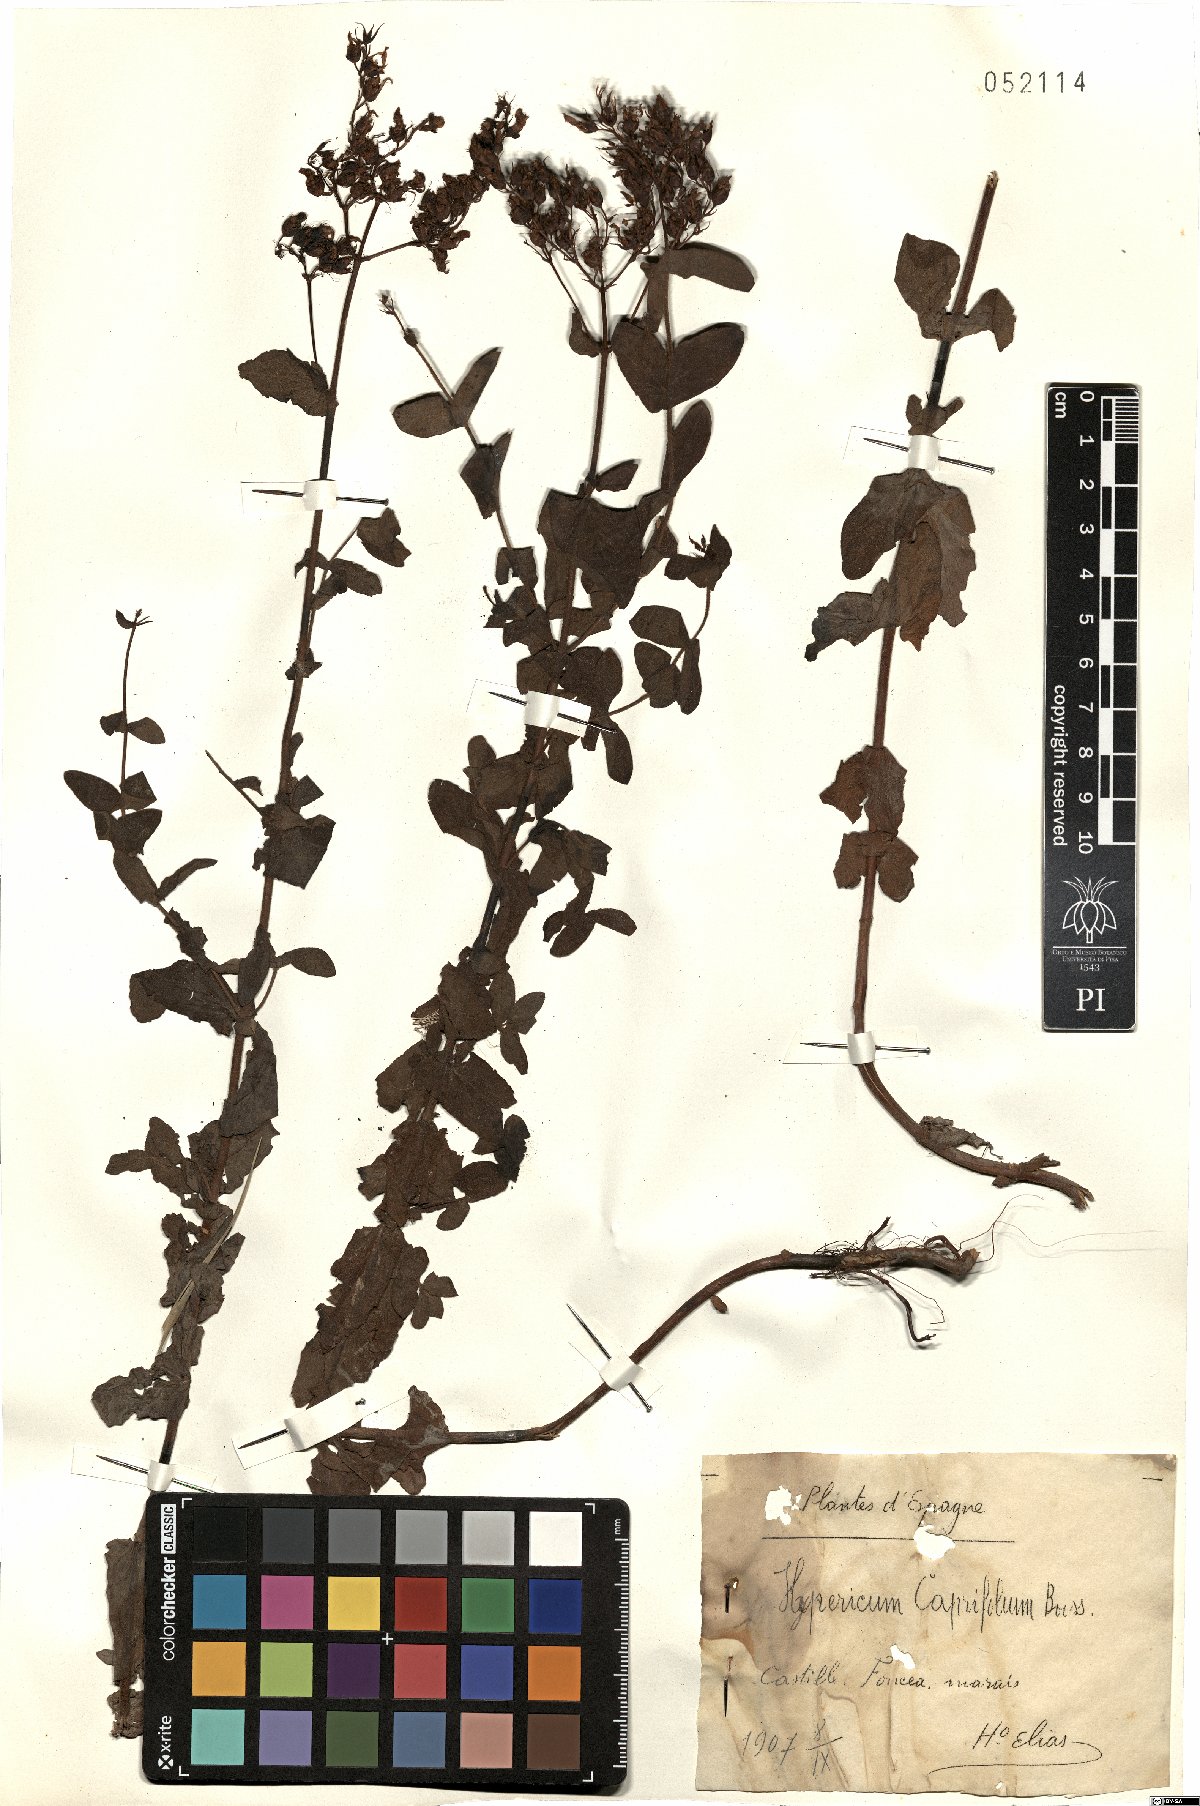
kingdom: Plantae
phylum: Tracheophyta
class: Magnoliopsida
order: Malpighiales
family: Hypericaceae
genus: Hypericum
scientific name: Hypericum caprifolium
